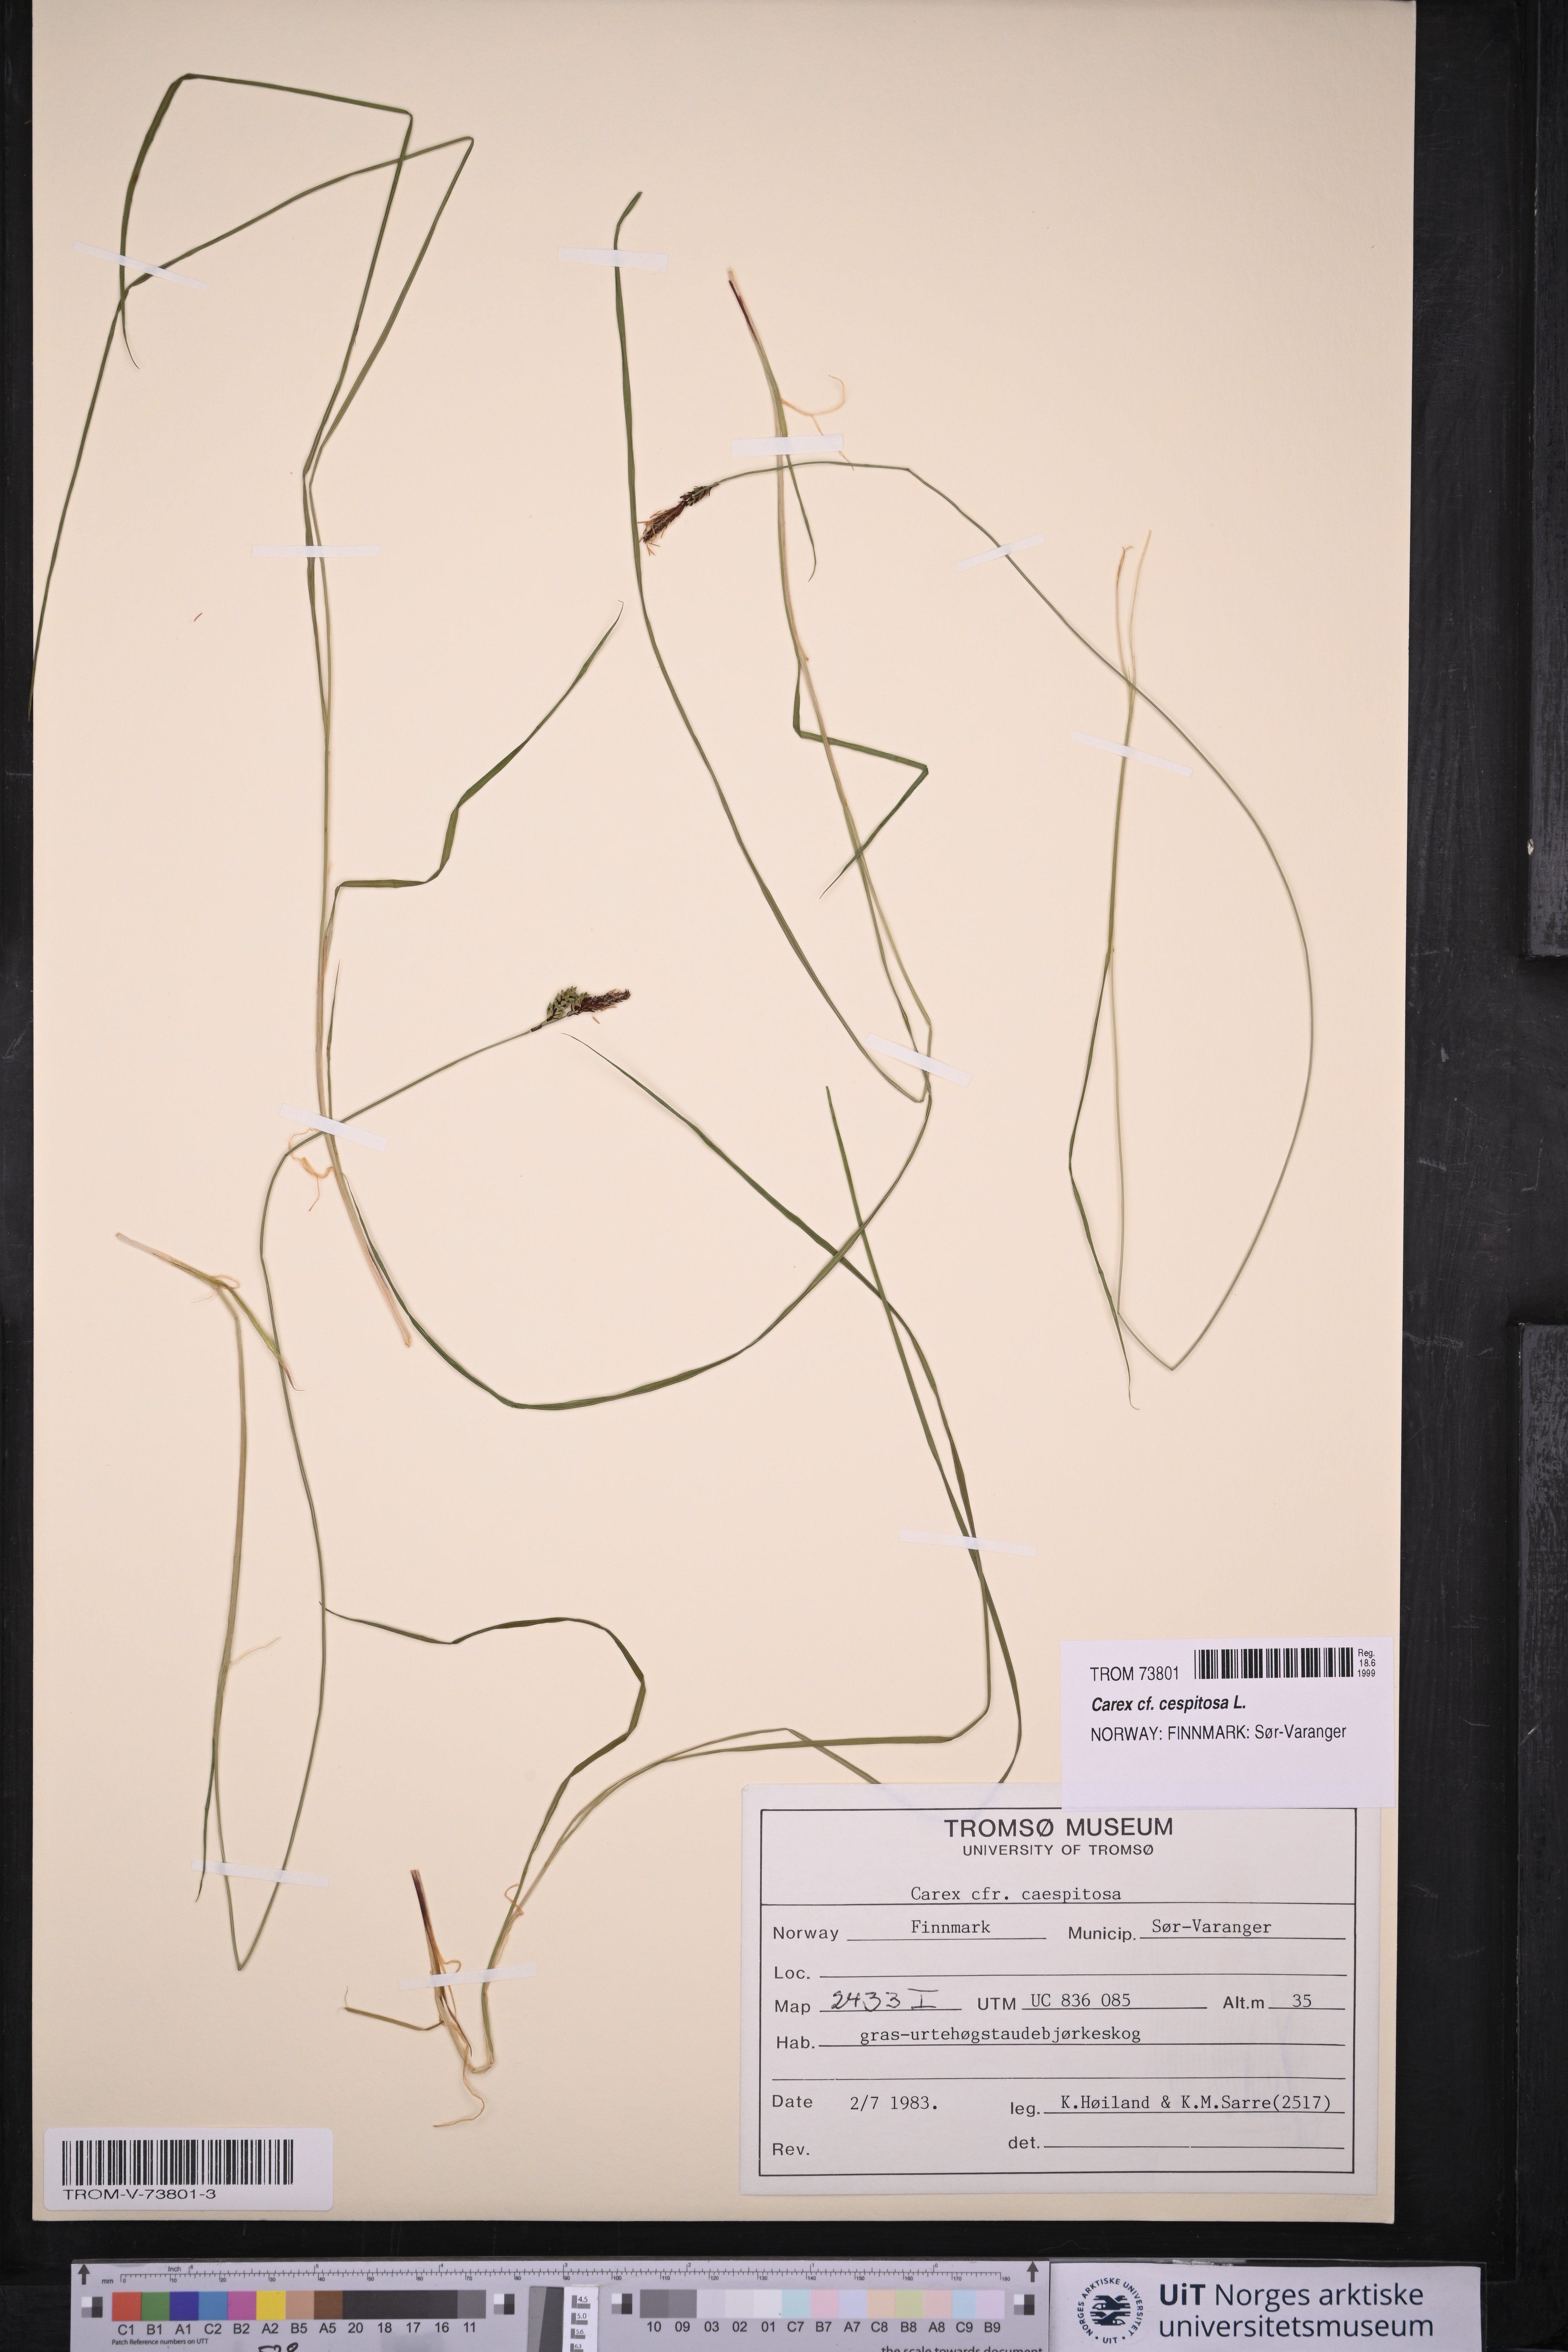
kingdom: Plantae
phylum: Tracheophyta
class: Liliopsida
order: Poales
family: Cyperaceae
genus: Carex
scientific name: Carex cespitosa
